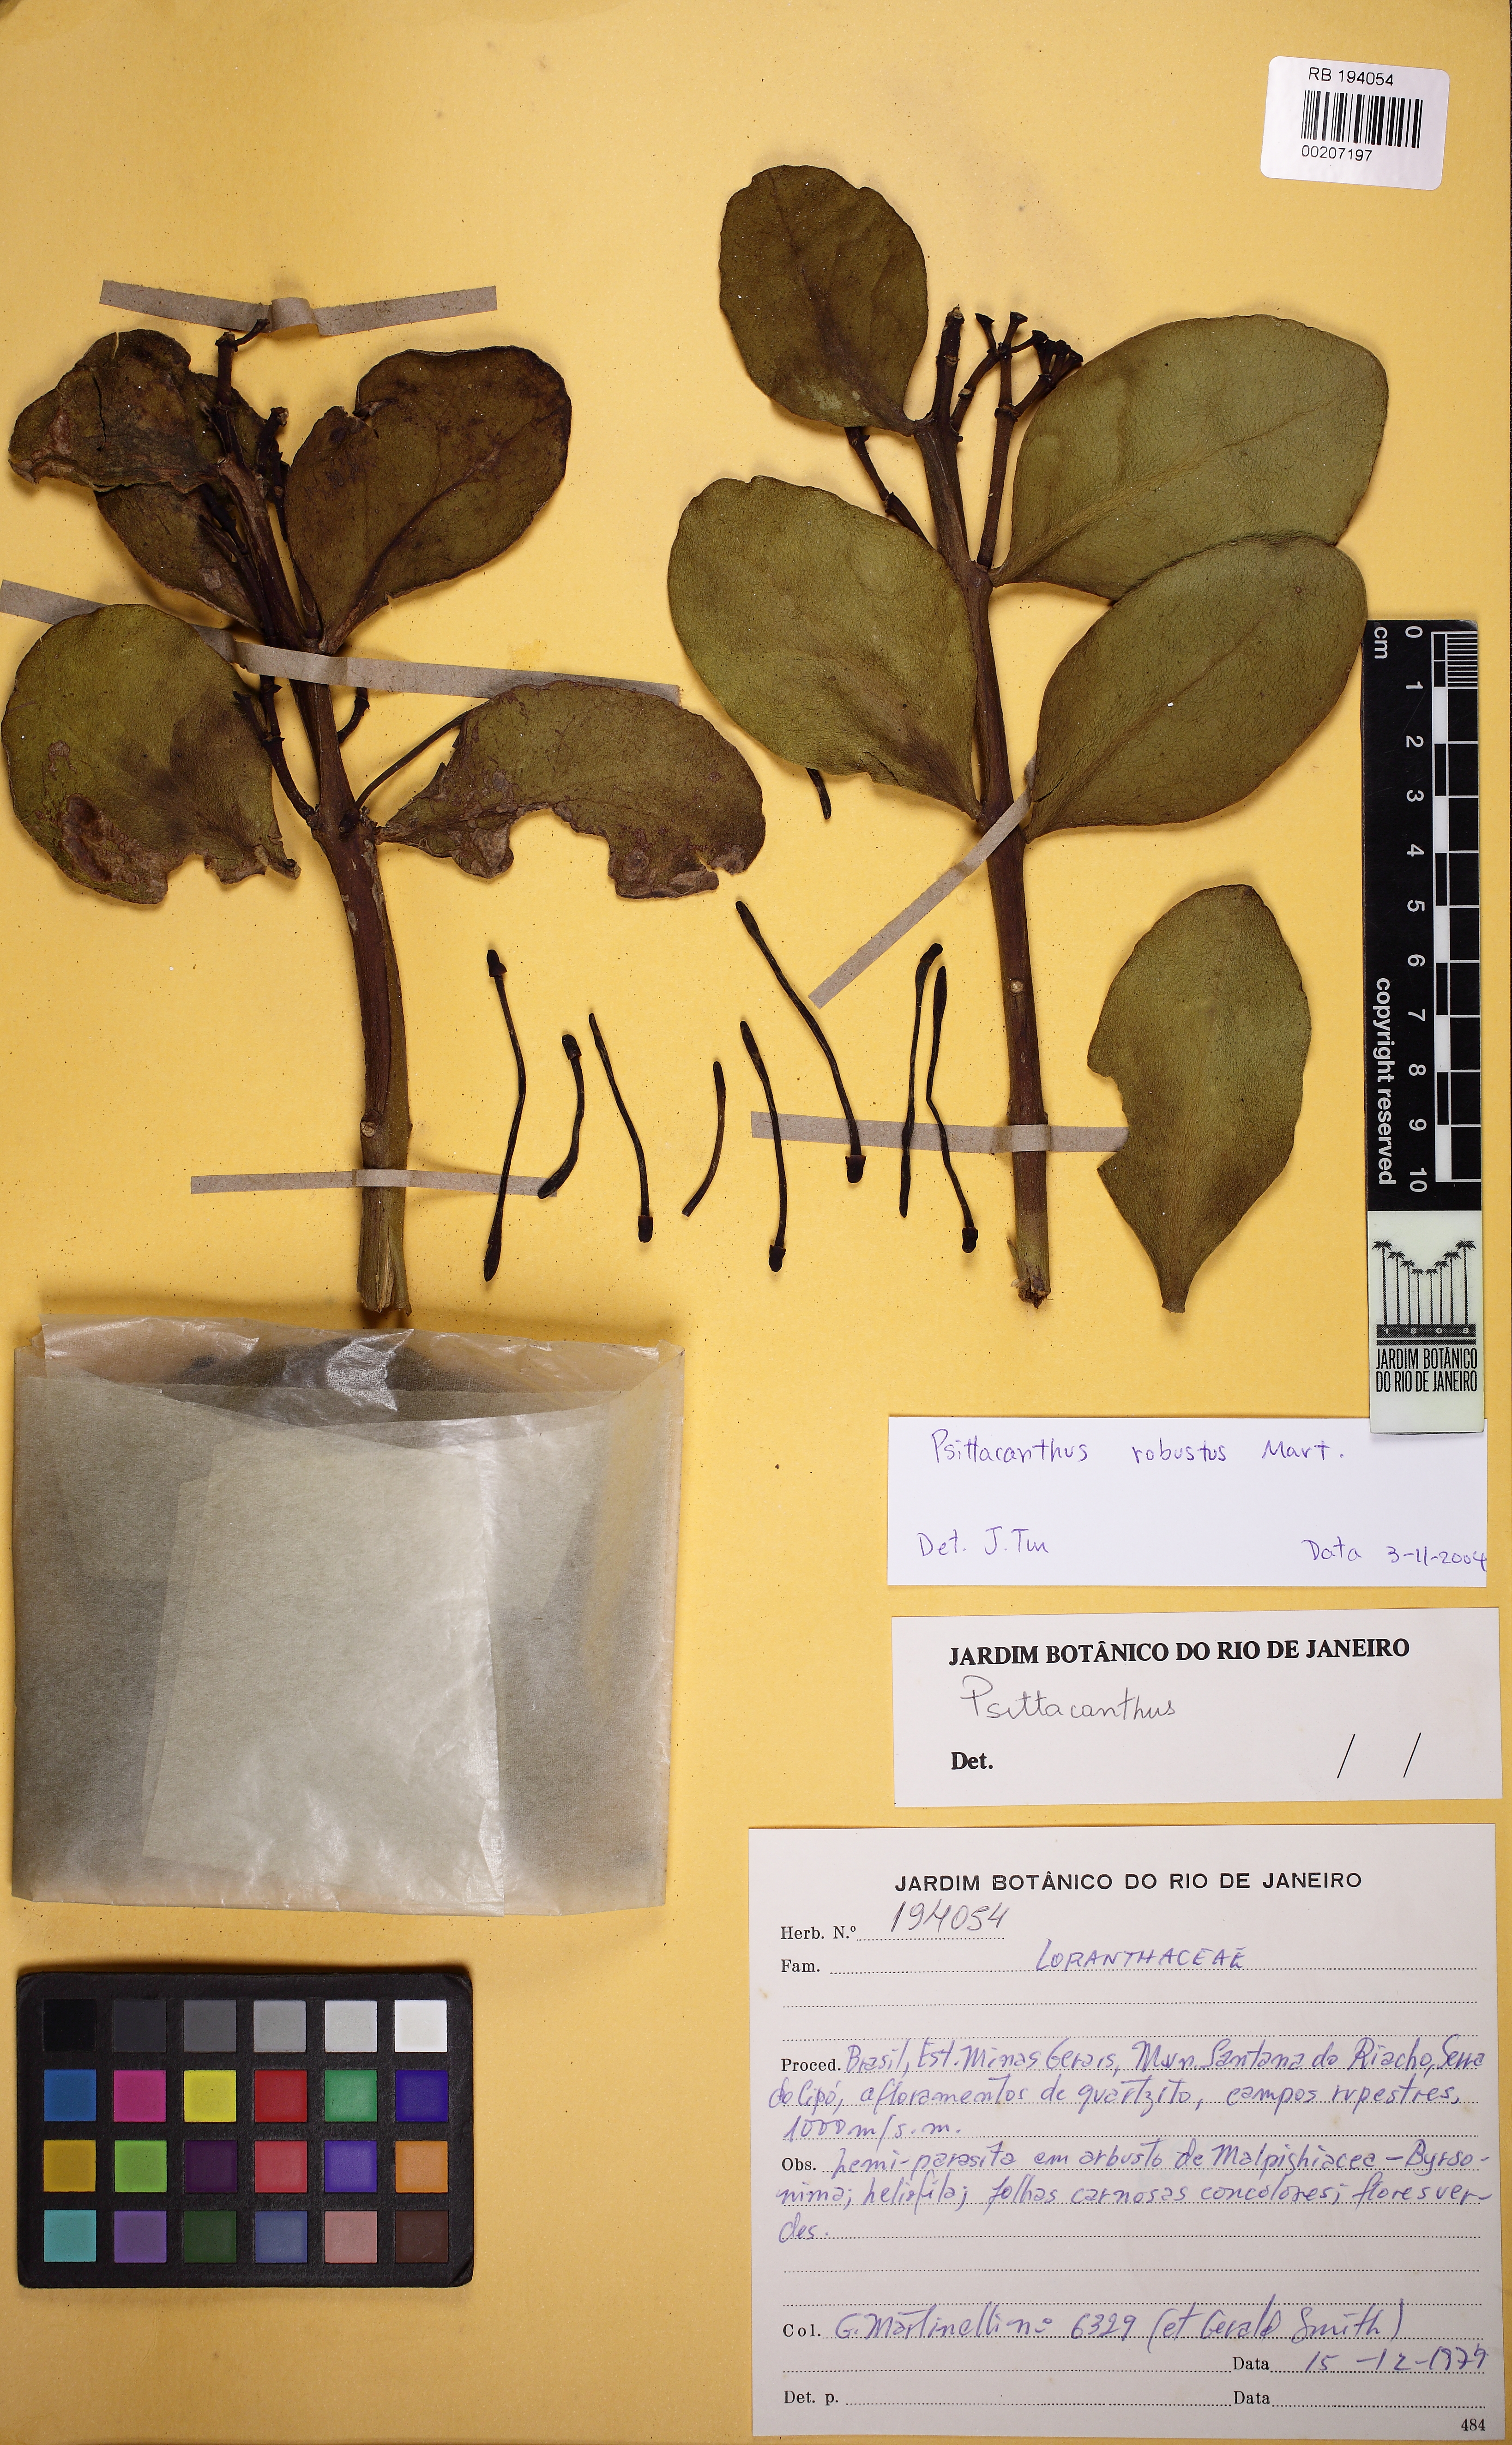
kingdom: Plantae
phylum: Tracheophyta
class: Magnoliopsida
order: Santalales
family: Loranthaceae
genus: Psittacanthus
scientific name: Psittacanthus robustus
